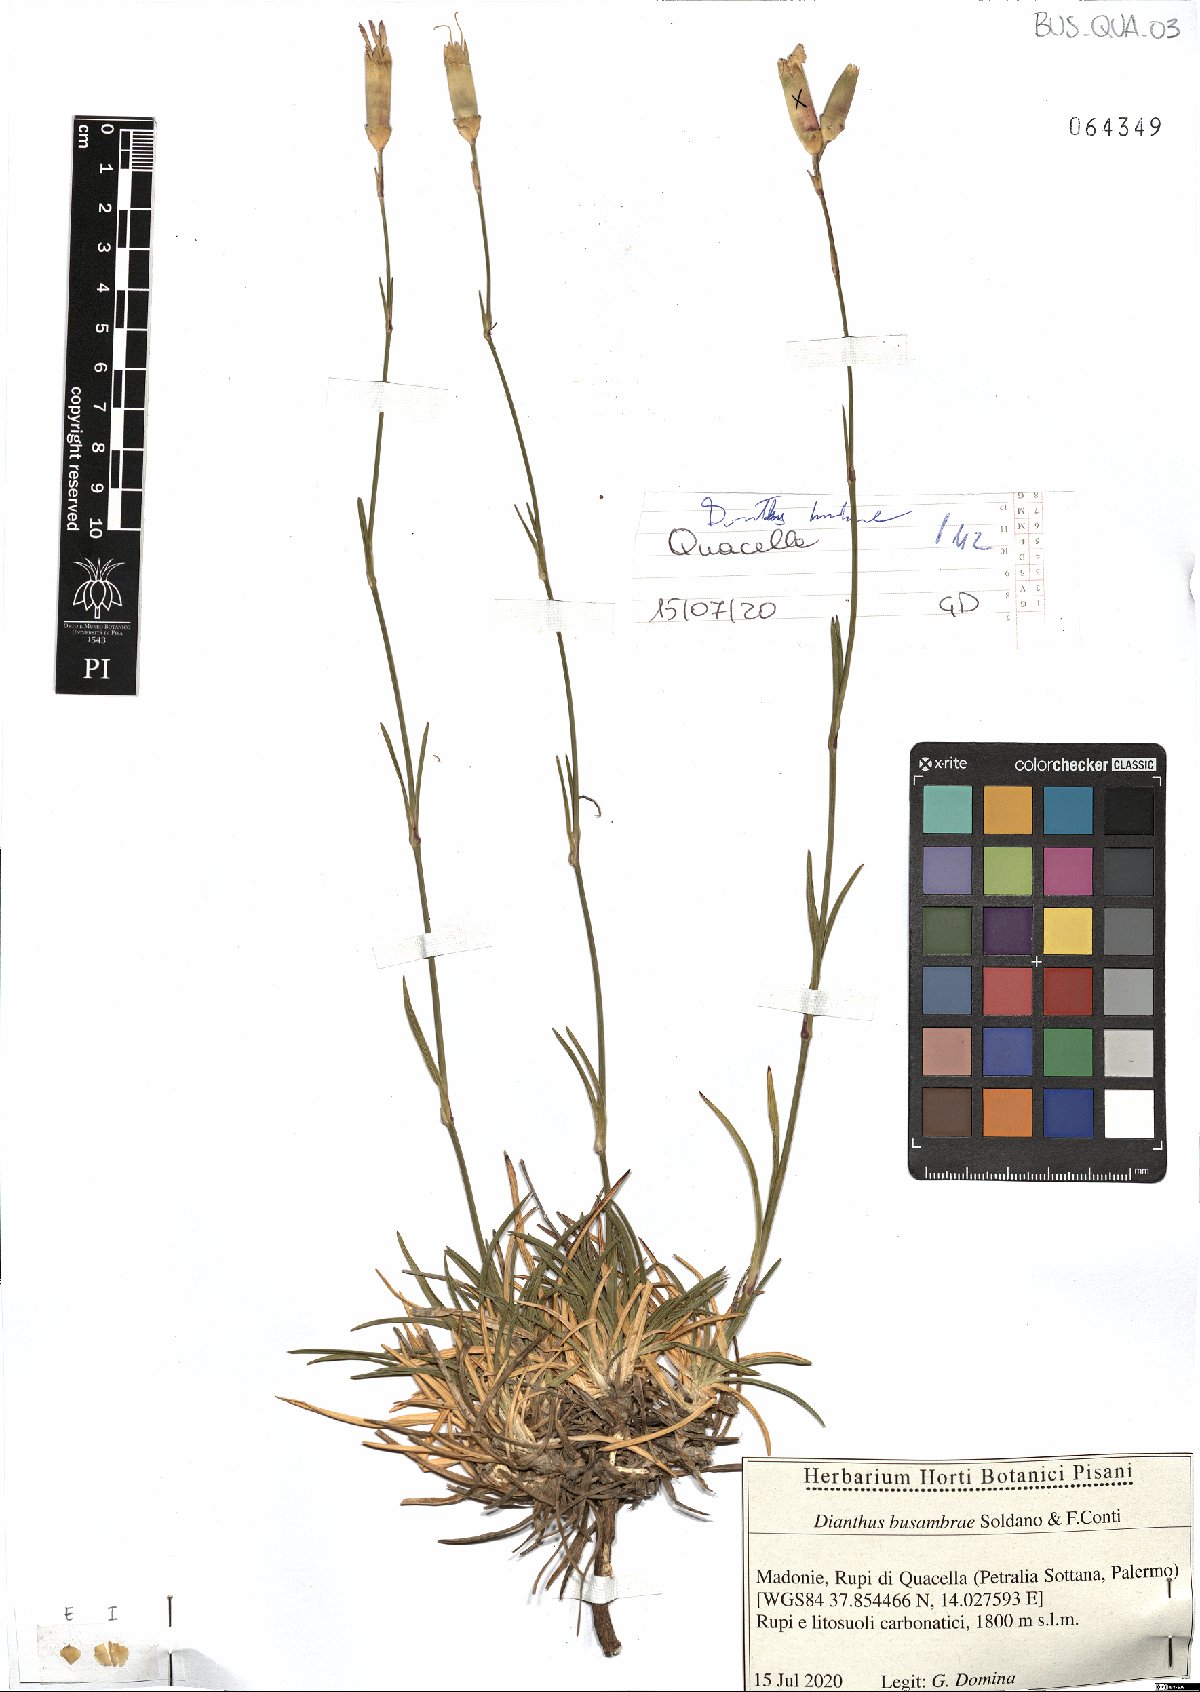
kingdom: Plantae
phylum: Tracheophyta
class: Magnoliopsida
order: Caryophyllales
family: Caryophyllaceae
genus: Dianthus
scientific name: Dianthus busambrae
